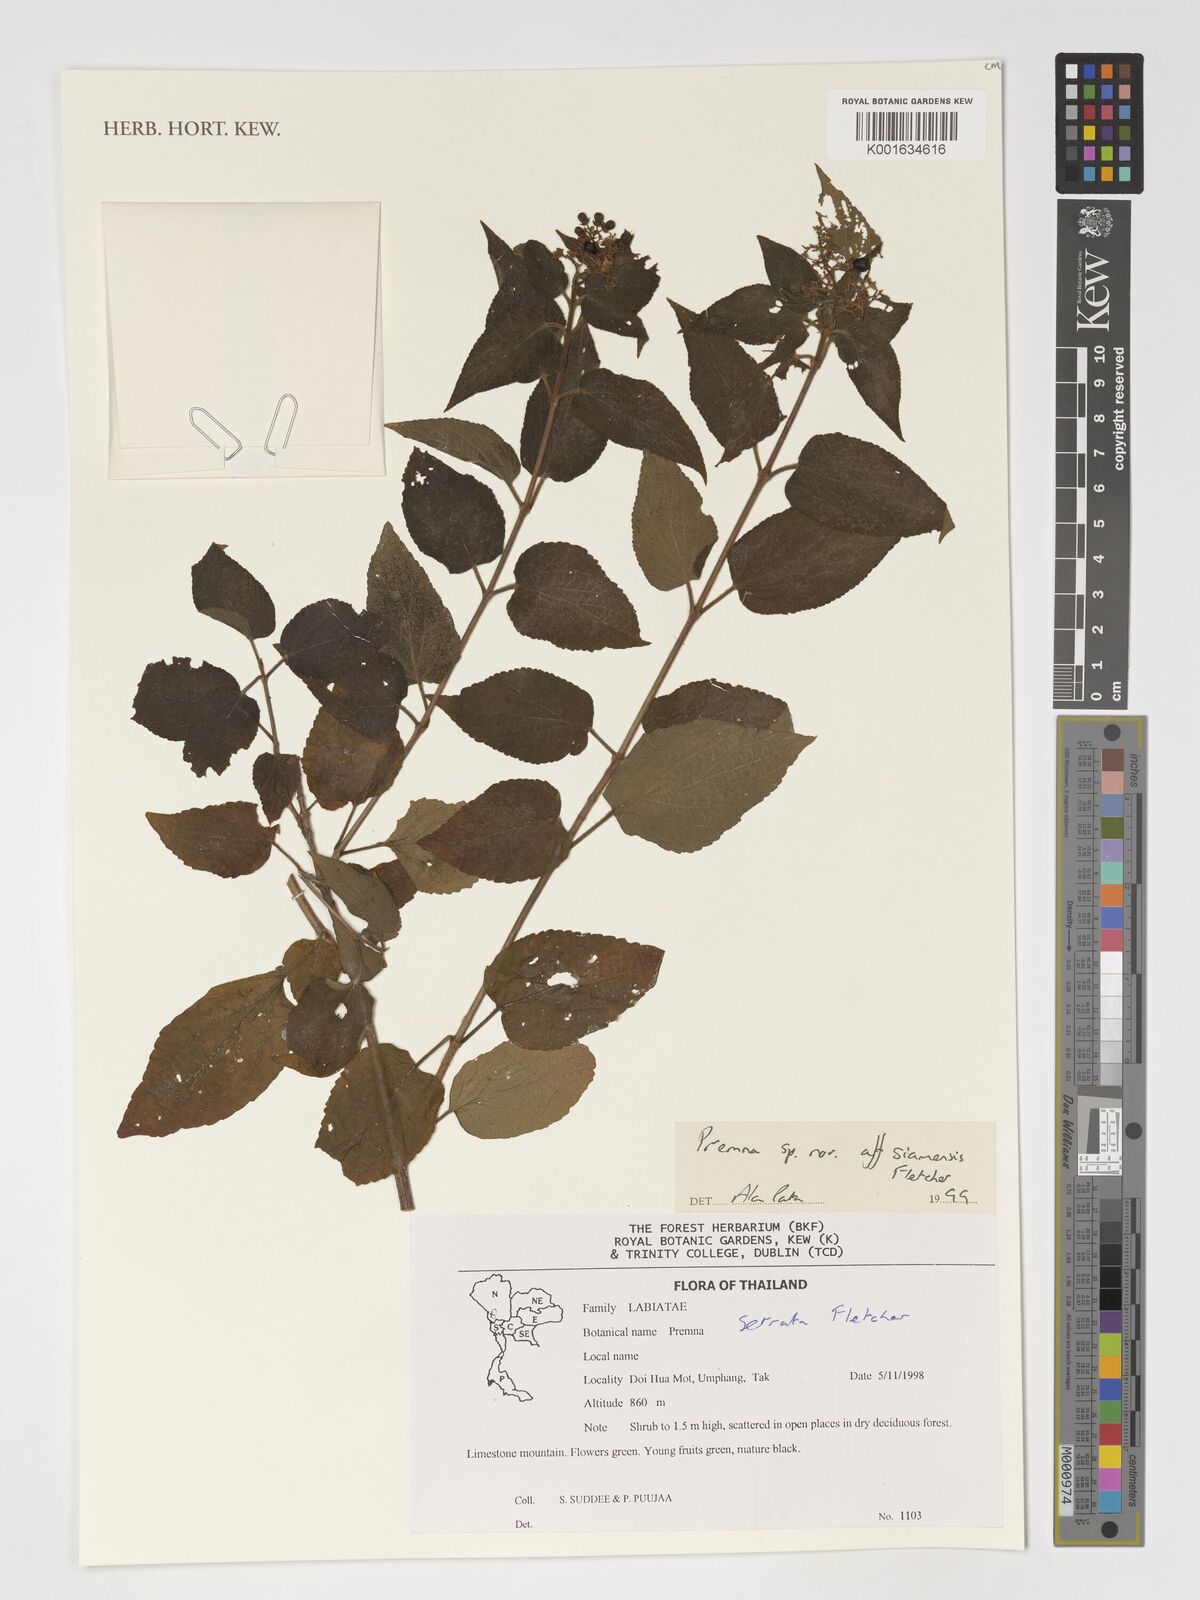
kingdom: Plantae
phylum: Tracheophyta
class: Magnoliopsida
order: Lamiales
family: Lamiaceae
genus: Premna
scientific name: Premna serrata
